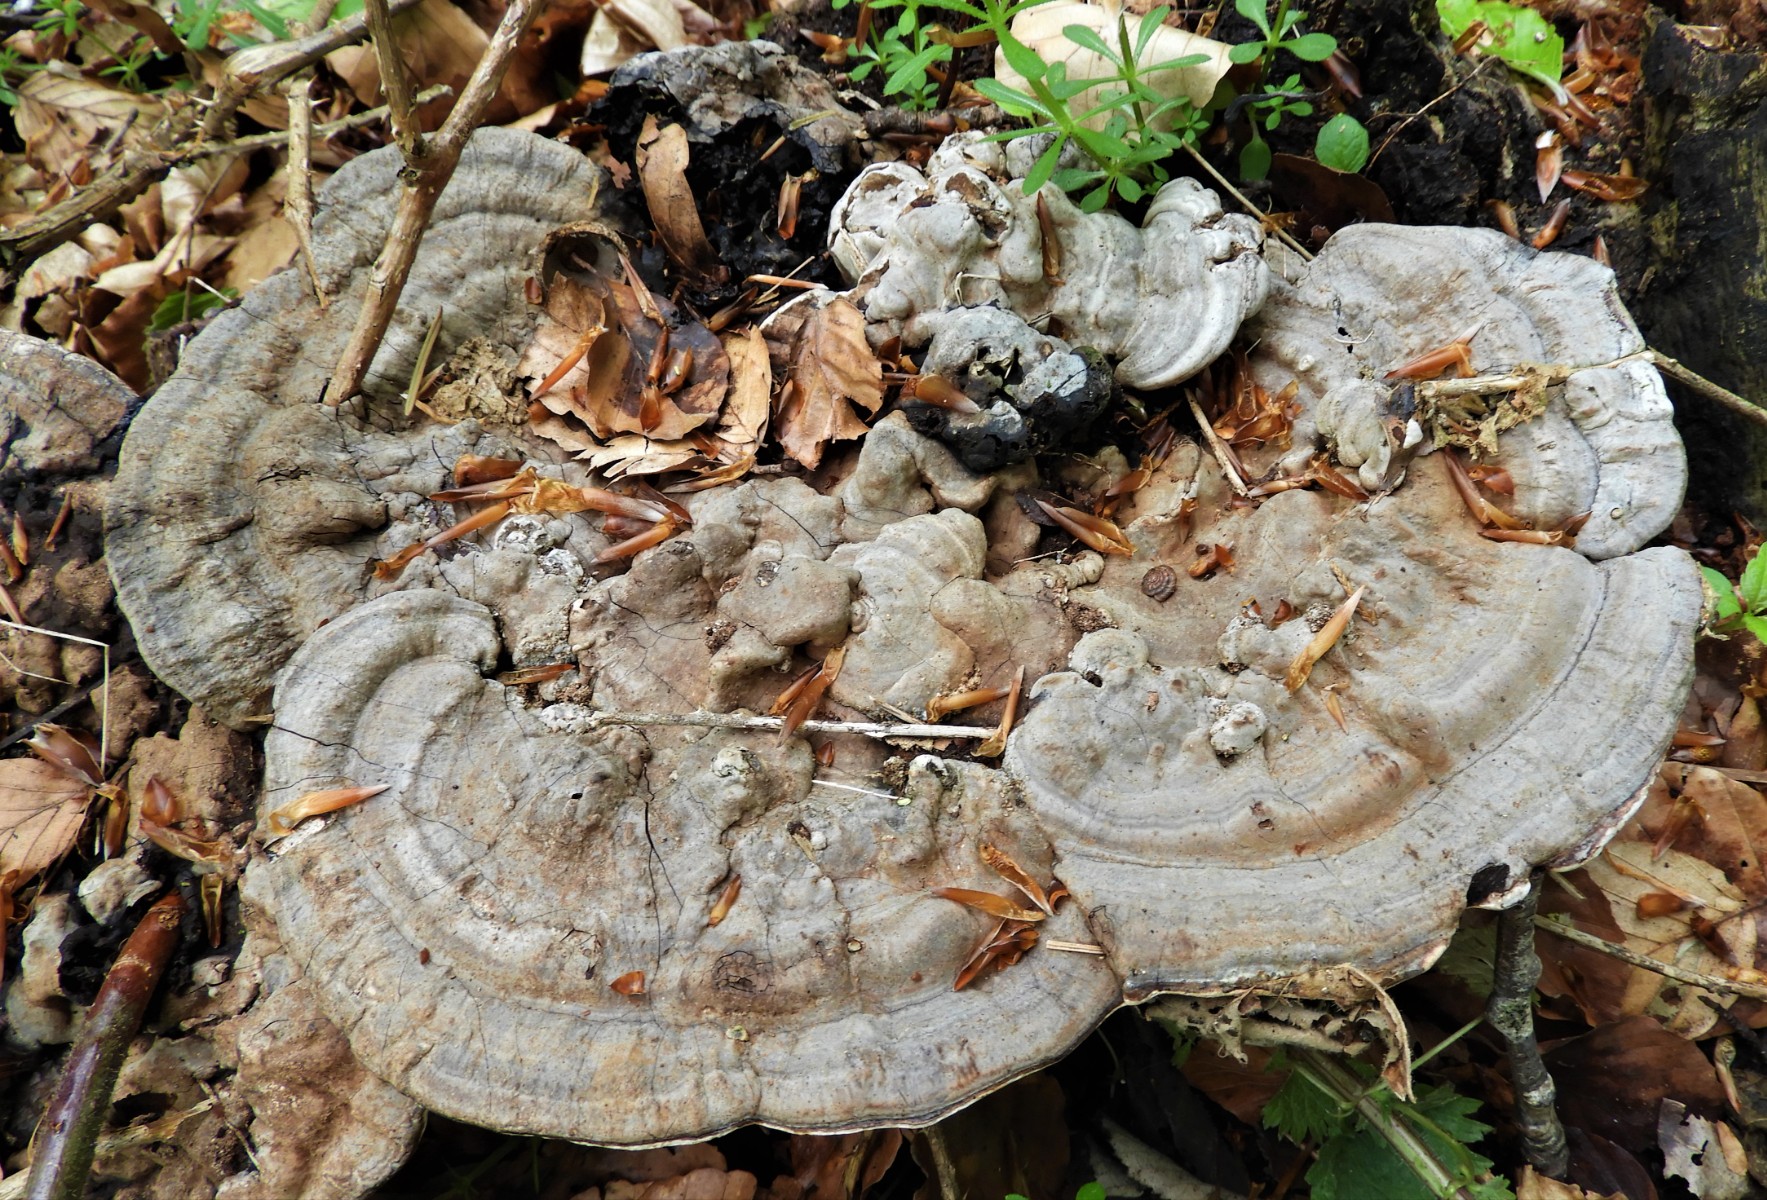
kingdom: Fungi
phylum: Basidiomycota
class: Agaricomycetes
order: Polyporales
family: Polyporaceae
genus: Ganoderma
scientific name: Ganoderma applanatum
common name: flad lakporesvamp
